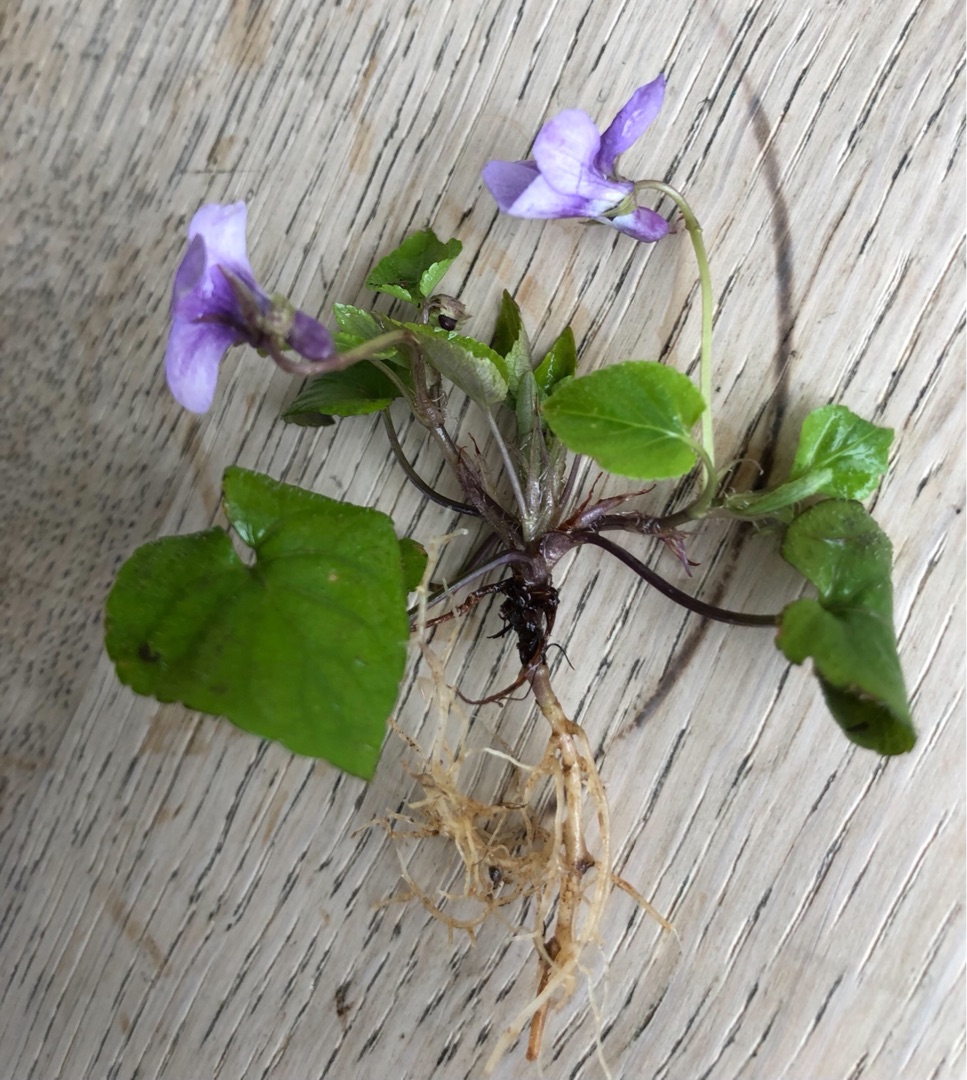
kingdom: Plantae
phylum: Tracheophyta
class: Magnoliopsida
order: Malpighiales
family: Violaceae
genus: Viola
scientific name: Viola reichenbachiana
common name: Skov-viol
